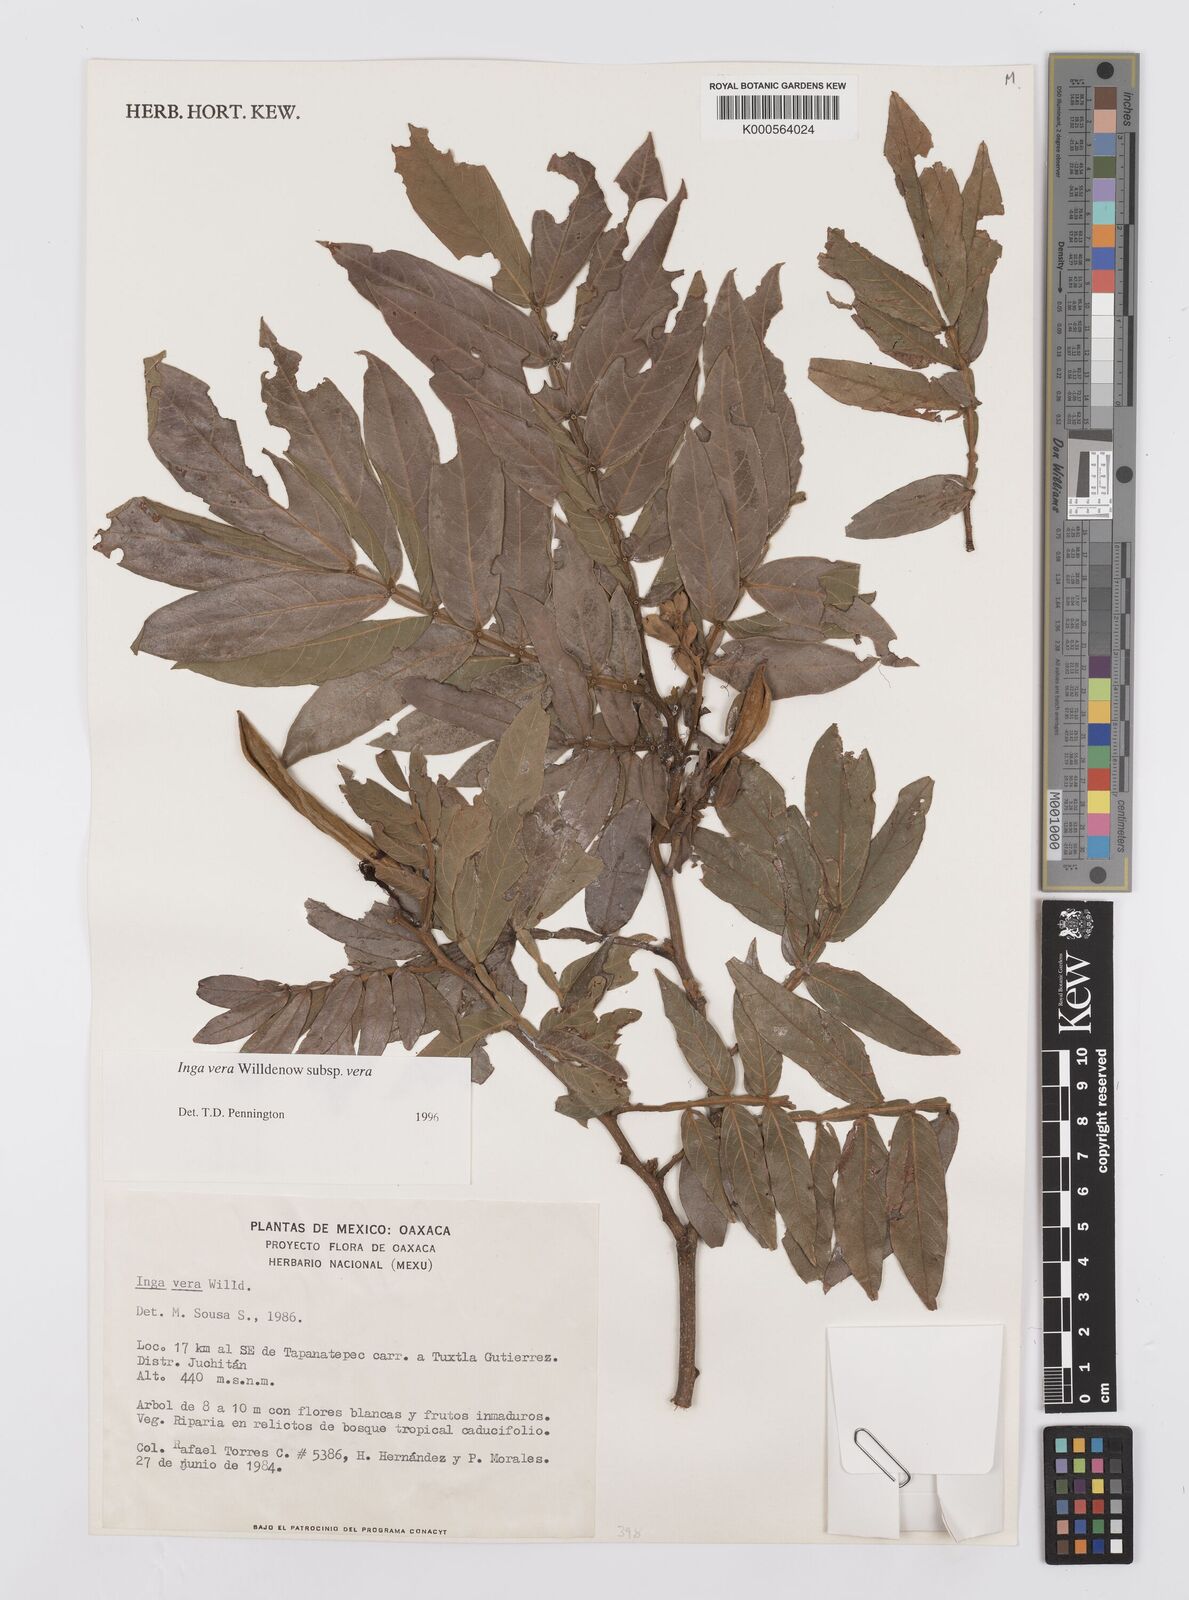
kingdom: Plantae
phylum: Tracheophyta
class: Magnoliopsida
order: Fabales
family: Fabaceae
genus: Inga
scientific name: Inga vera
